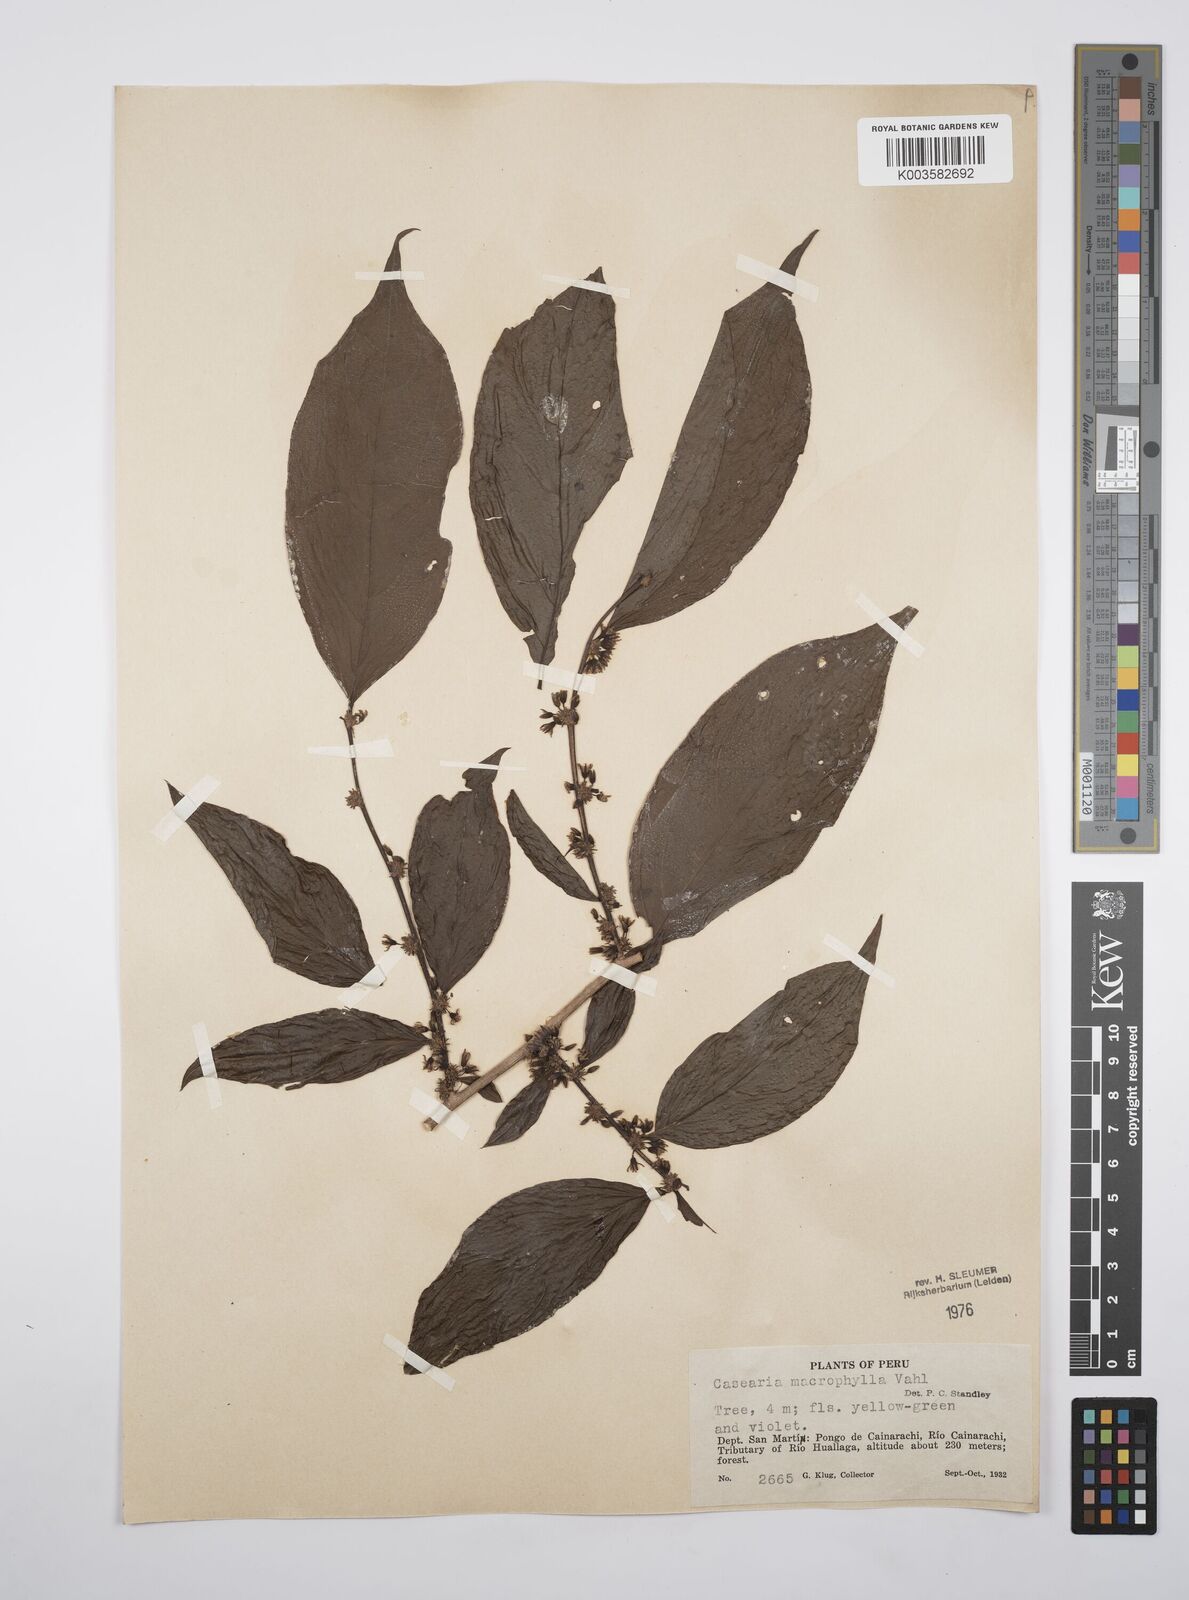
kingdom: Plantae
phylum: Tracheophyta
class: Magnoliopsida
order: Malpighiales
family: Salicaceae
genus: Casearia
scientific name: Casearia pitumba
